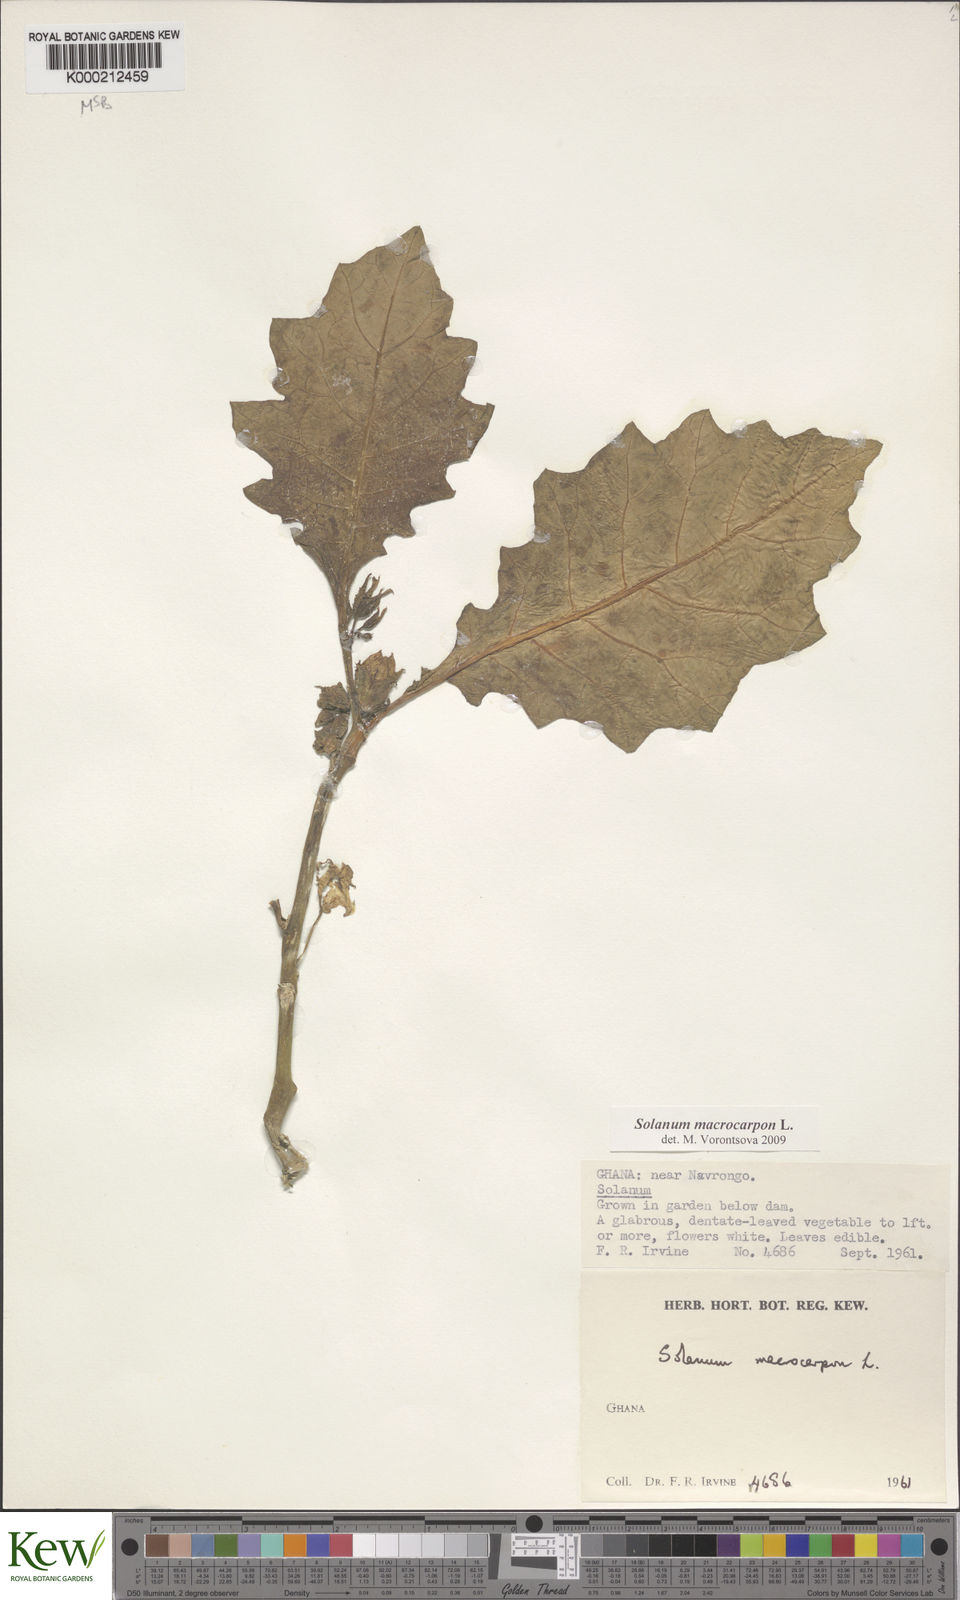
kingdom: Plantae
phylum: Tracheophyta
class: Magnoliopsida
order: Solanales
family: Solanaceae
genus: Solanum
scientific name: Solanum macrocarpon
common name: African eggplant
